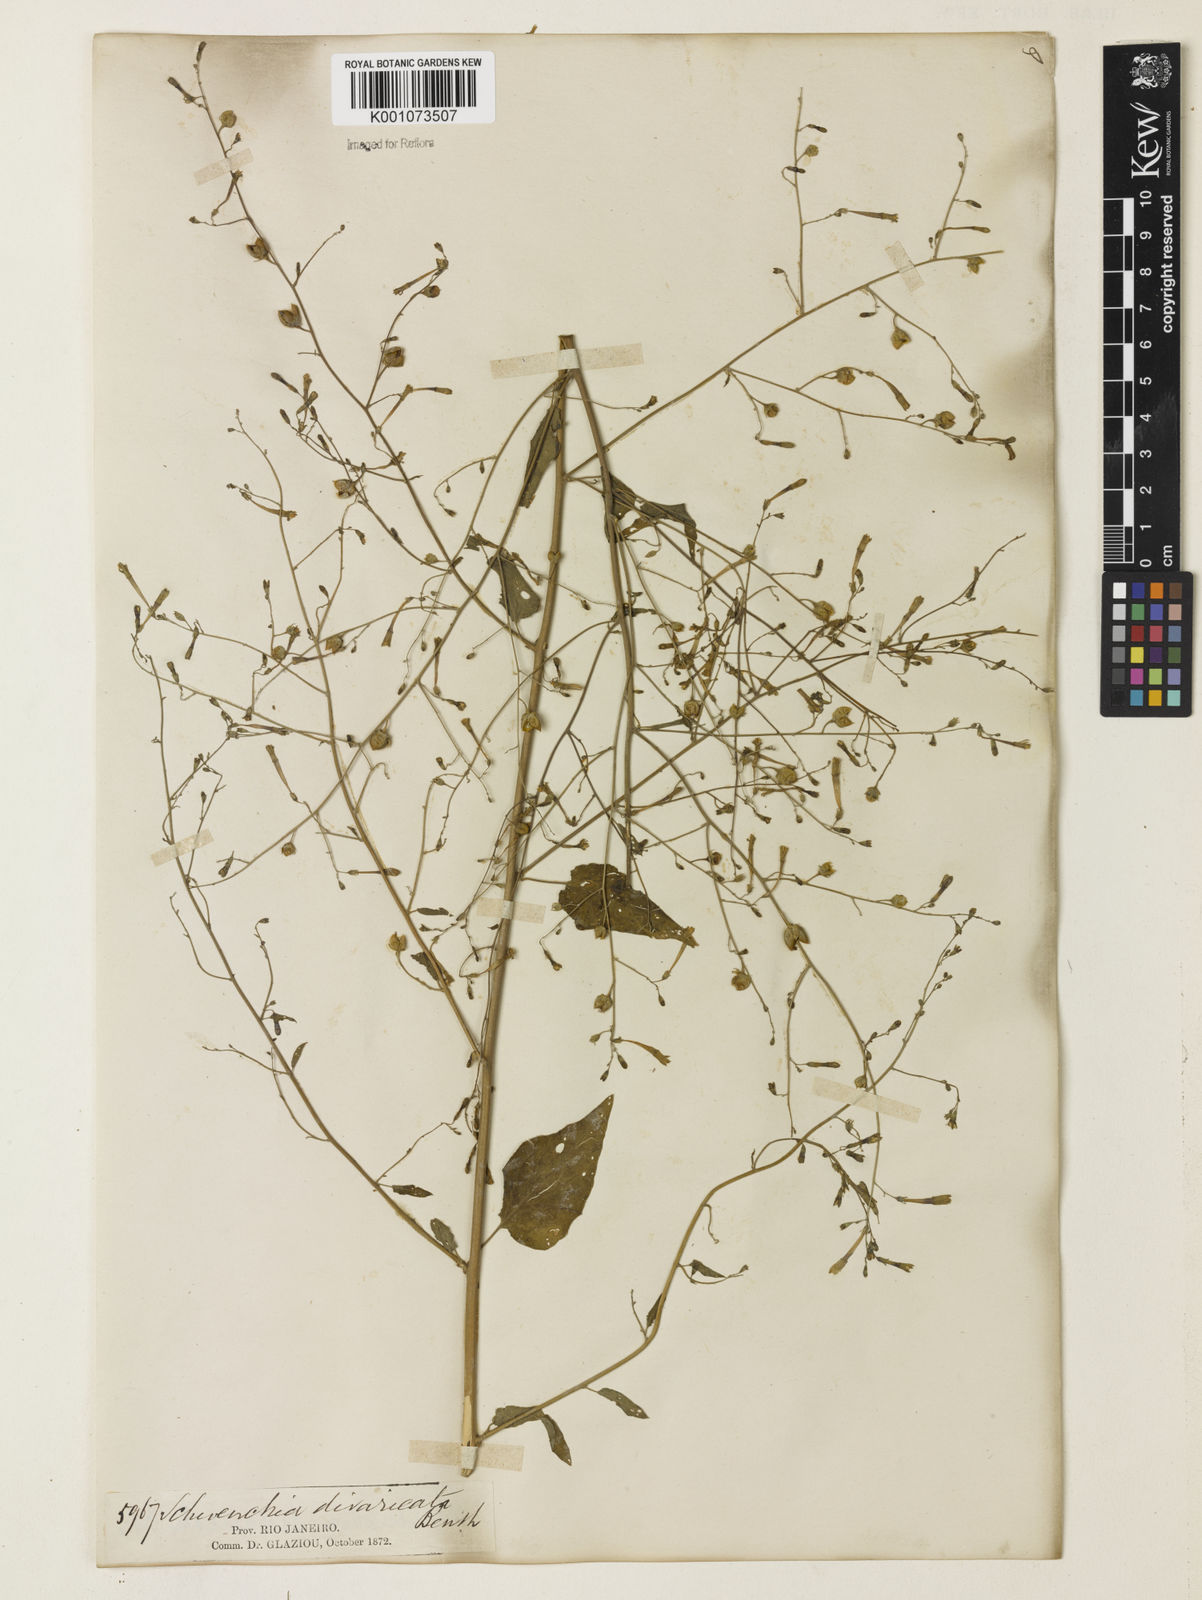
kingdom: Plantae
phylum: Tracheophyta
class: Magnoliopsida
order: Solanales
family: Solanaceae
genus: Schwenckia
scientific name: Schwenckia paniculata
